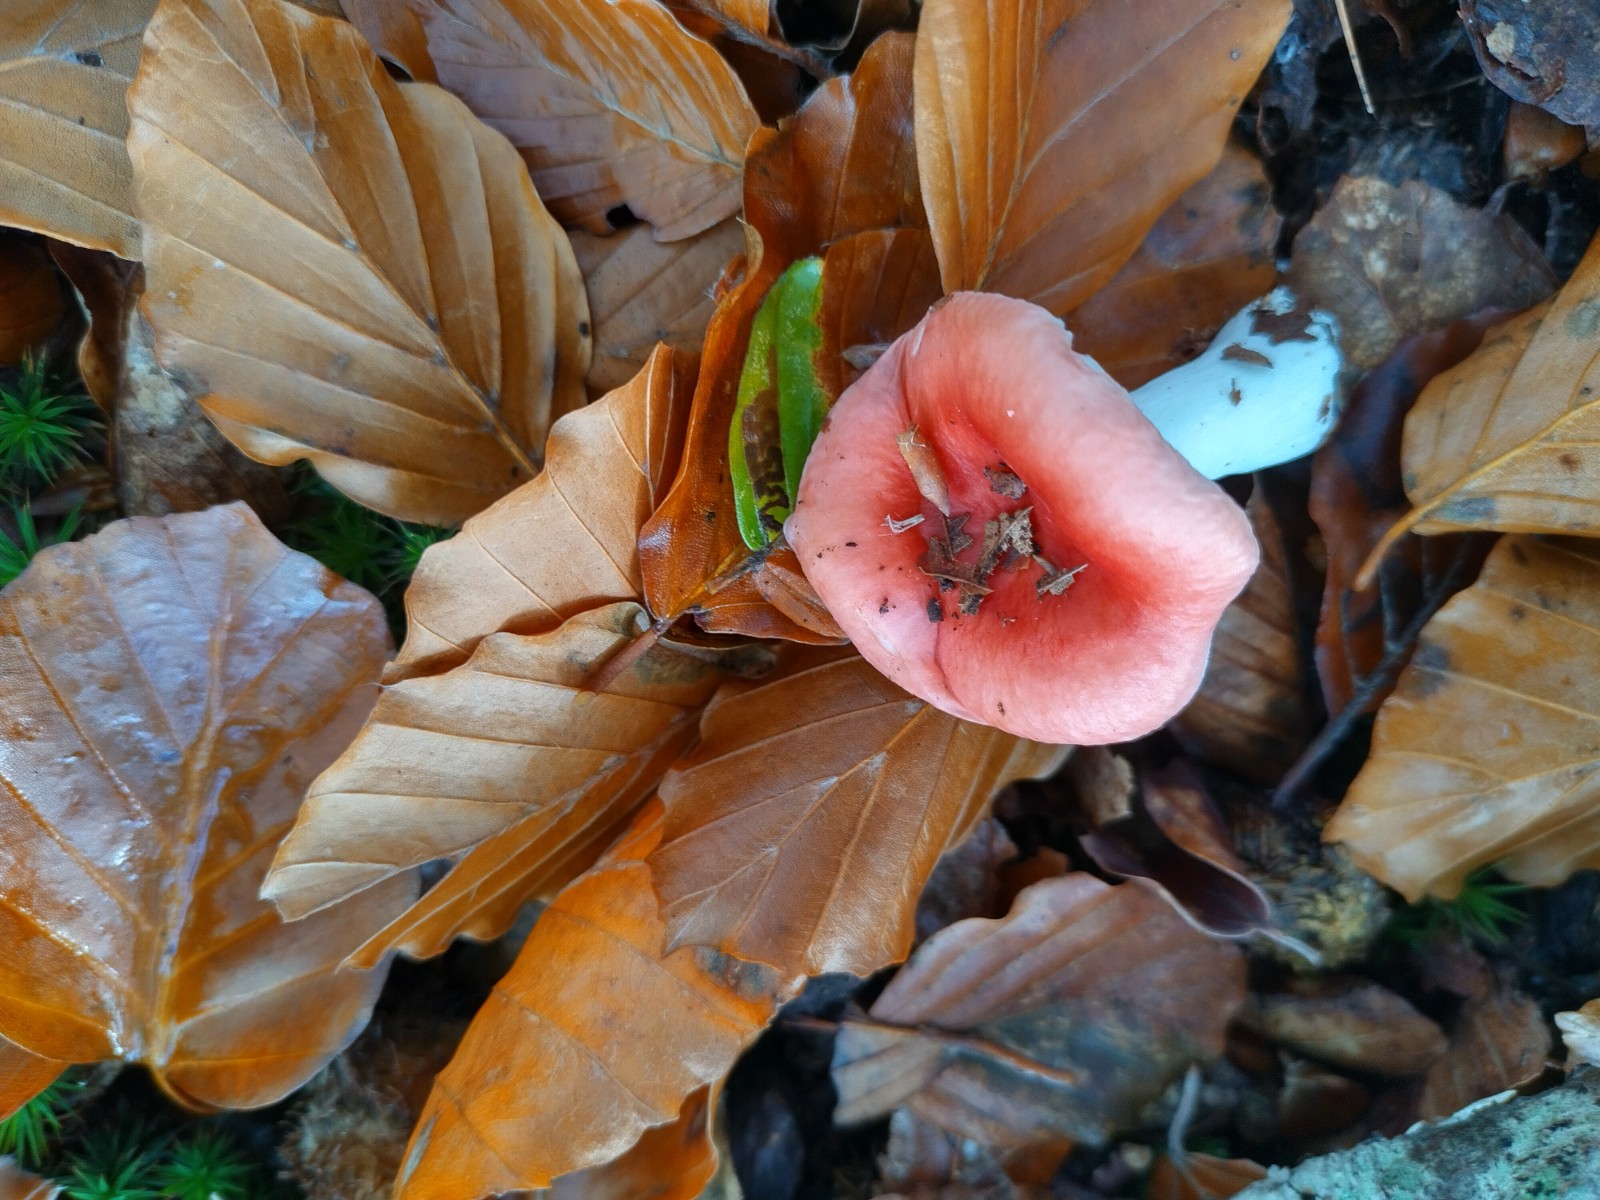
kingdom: Fungi
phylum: Basidiomycota
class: Agaricomycetes
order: Russulales
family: Russulaceae
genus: Russula
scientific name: Russula nobilis
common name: lille gift-skørhat
